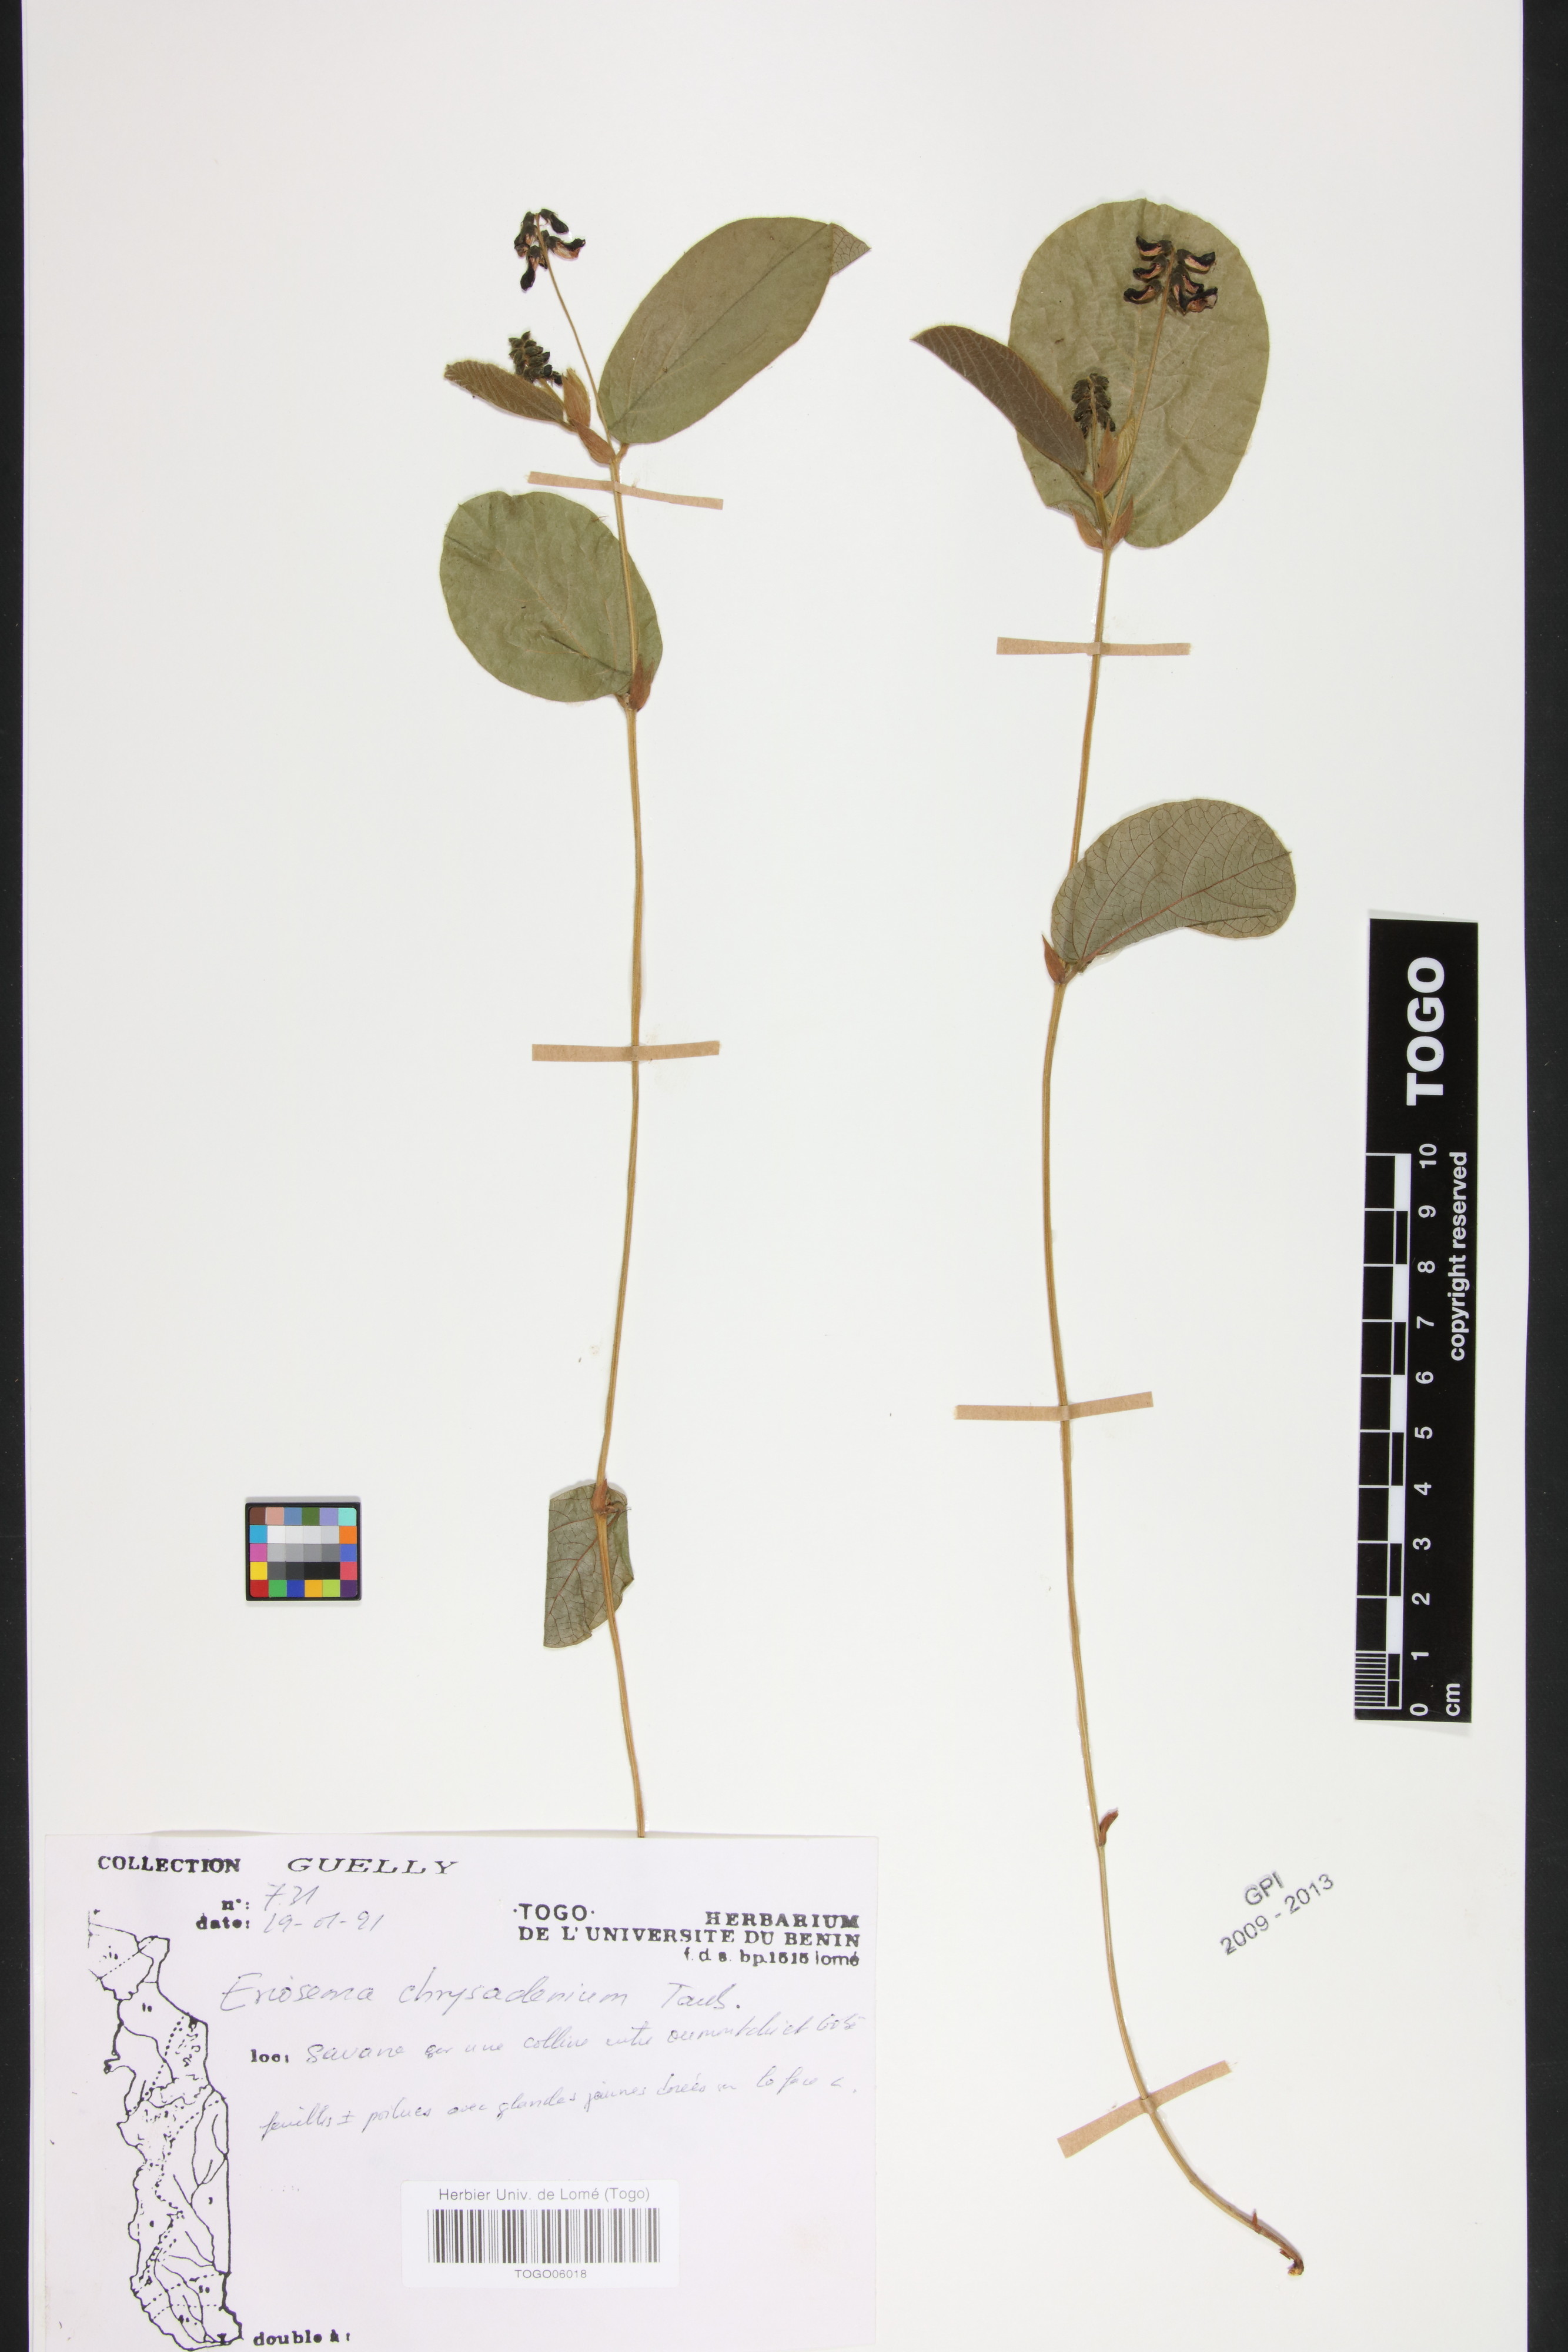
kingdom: Plantae
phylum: Tracheophyta
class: Magnoliopsida
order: Fabales
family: Fabaceae
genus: Eriosema
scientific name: Eriosema chrysadenium
